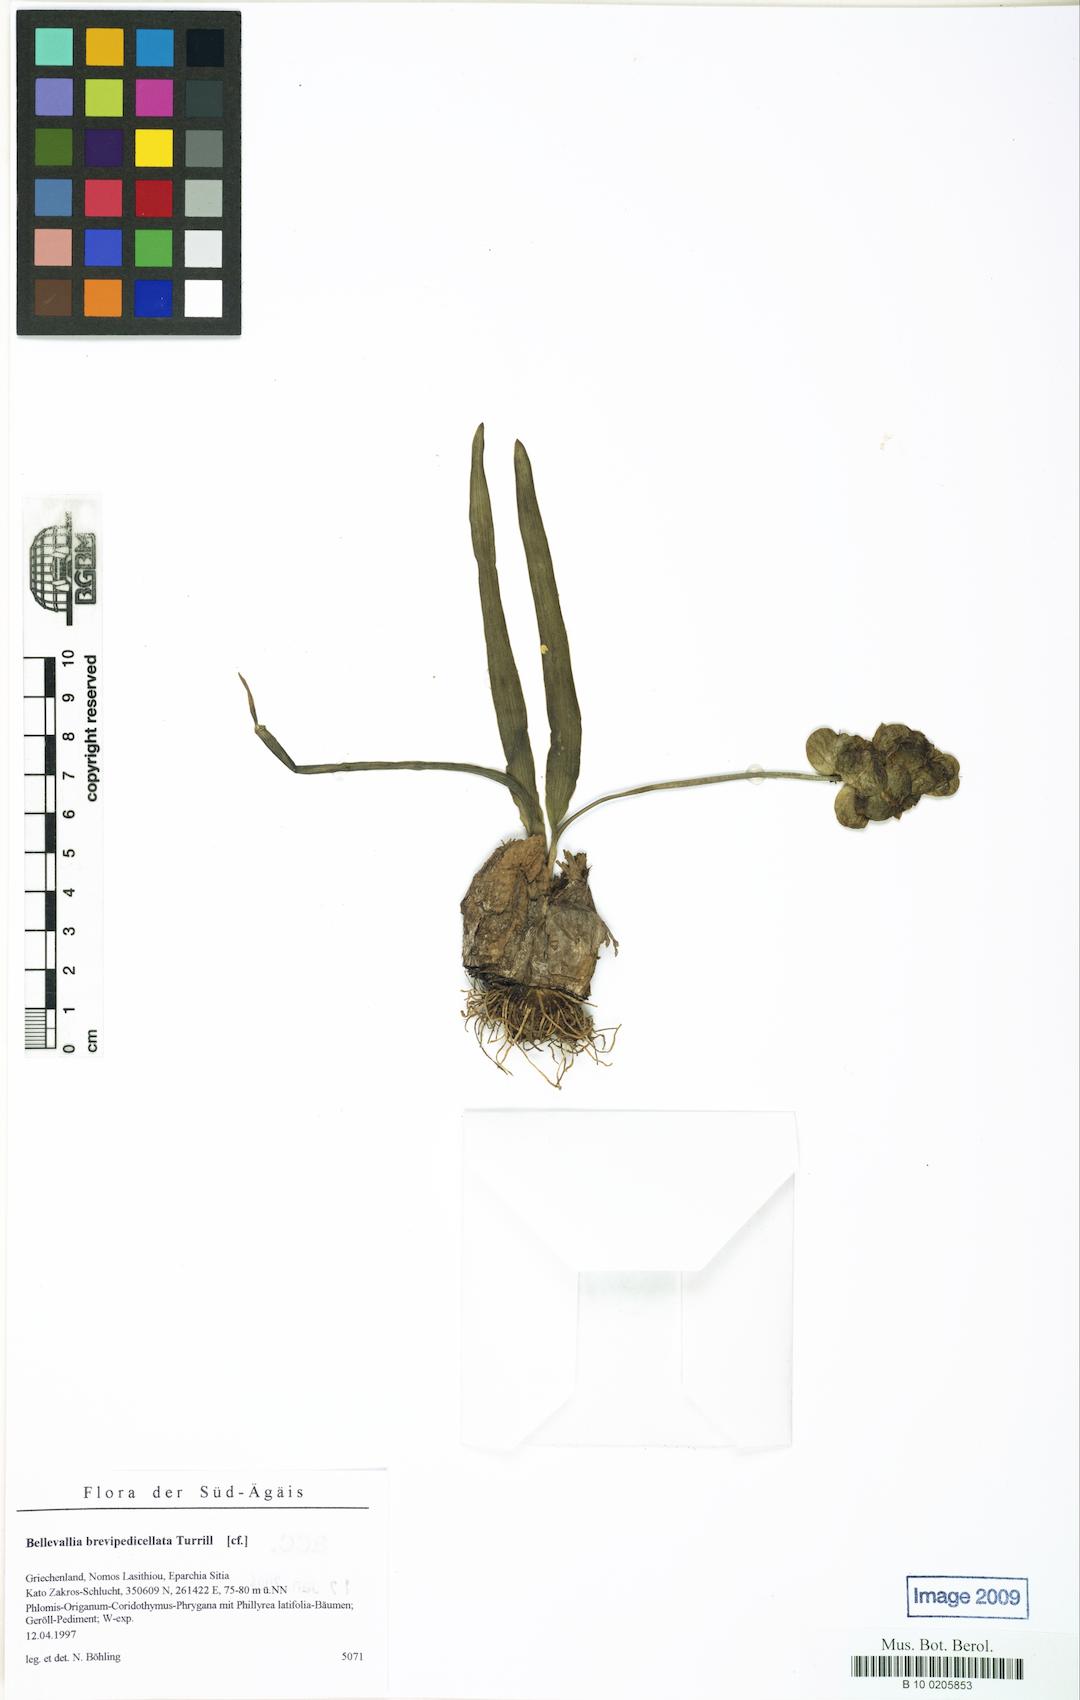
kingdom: Plantae
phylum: Tracheophyta
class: Liliopsida
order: Asparagales
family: Asparagaceae
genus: Bellevalia
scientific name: Bellevalia sitiaca
